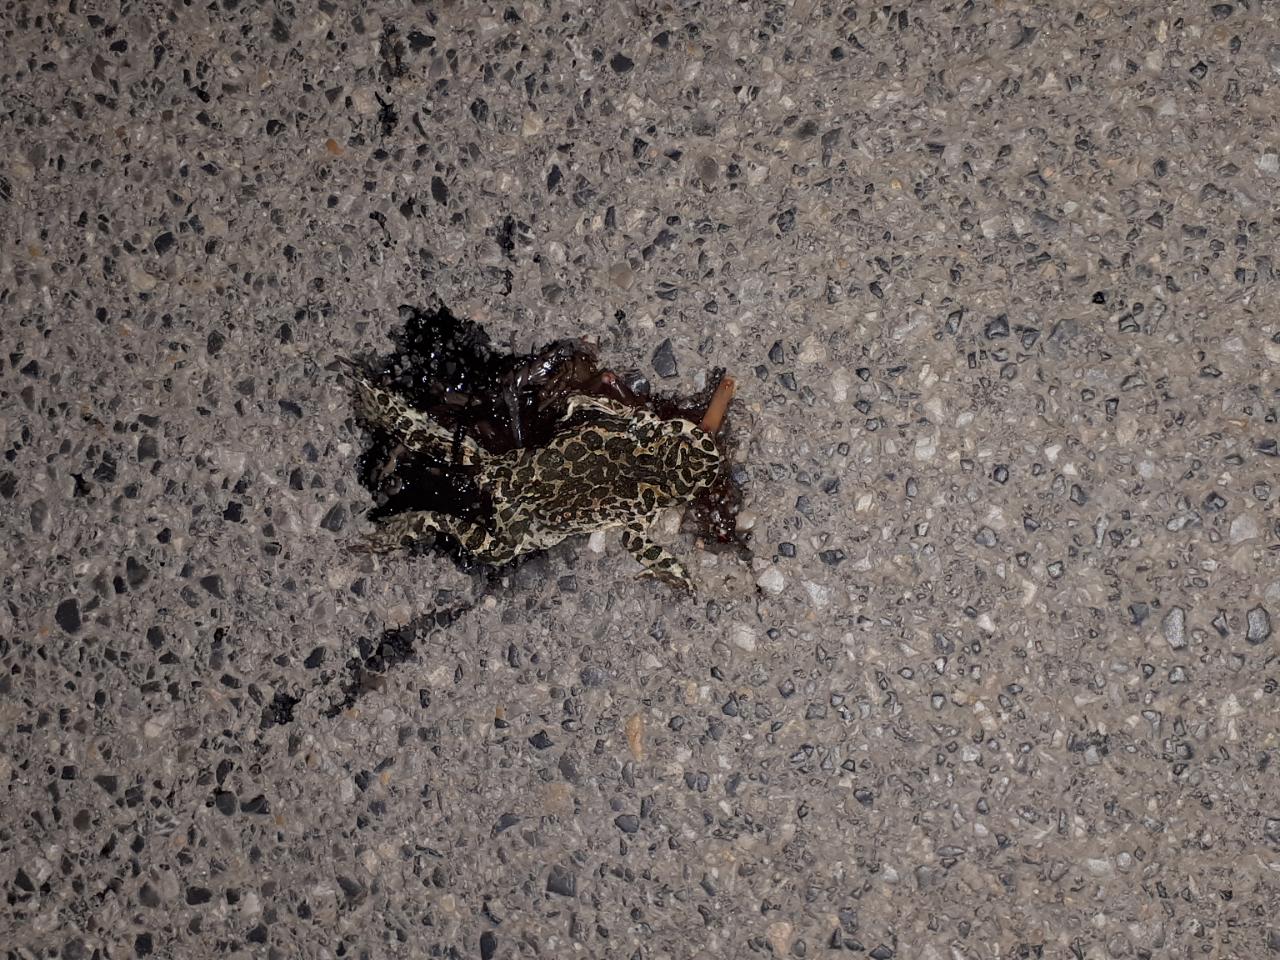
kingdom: Animalia
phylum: Chordata
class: Amphibia
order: Anura
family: Bufonidae
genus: Bufotes
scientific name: Bufotes viridis
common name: European green toad
